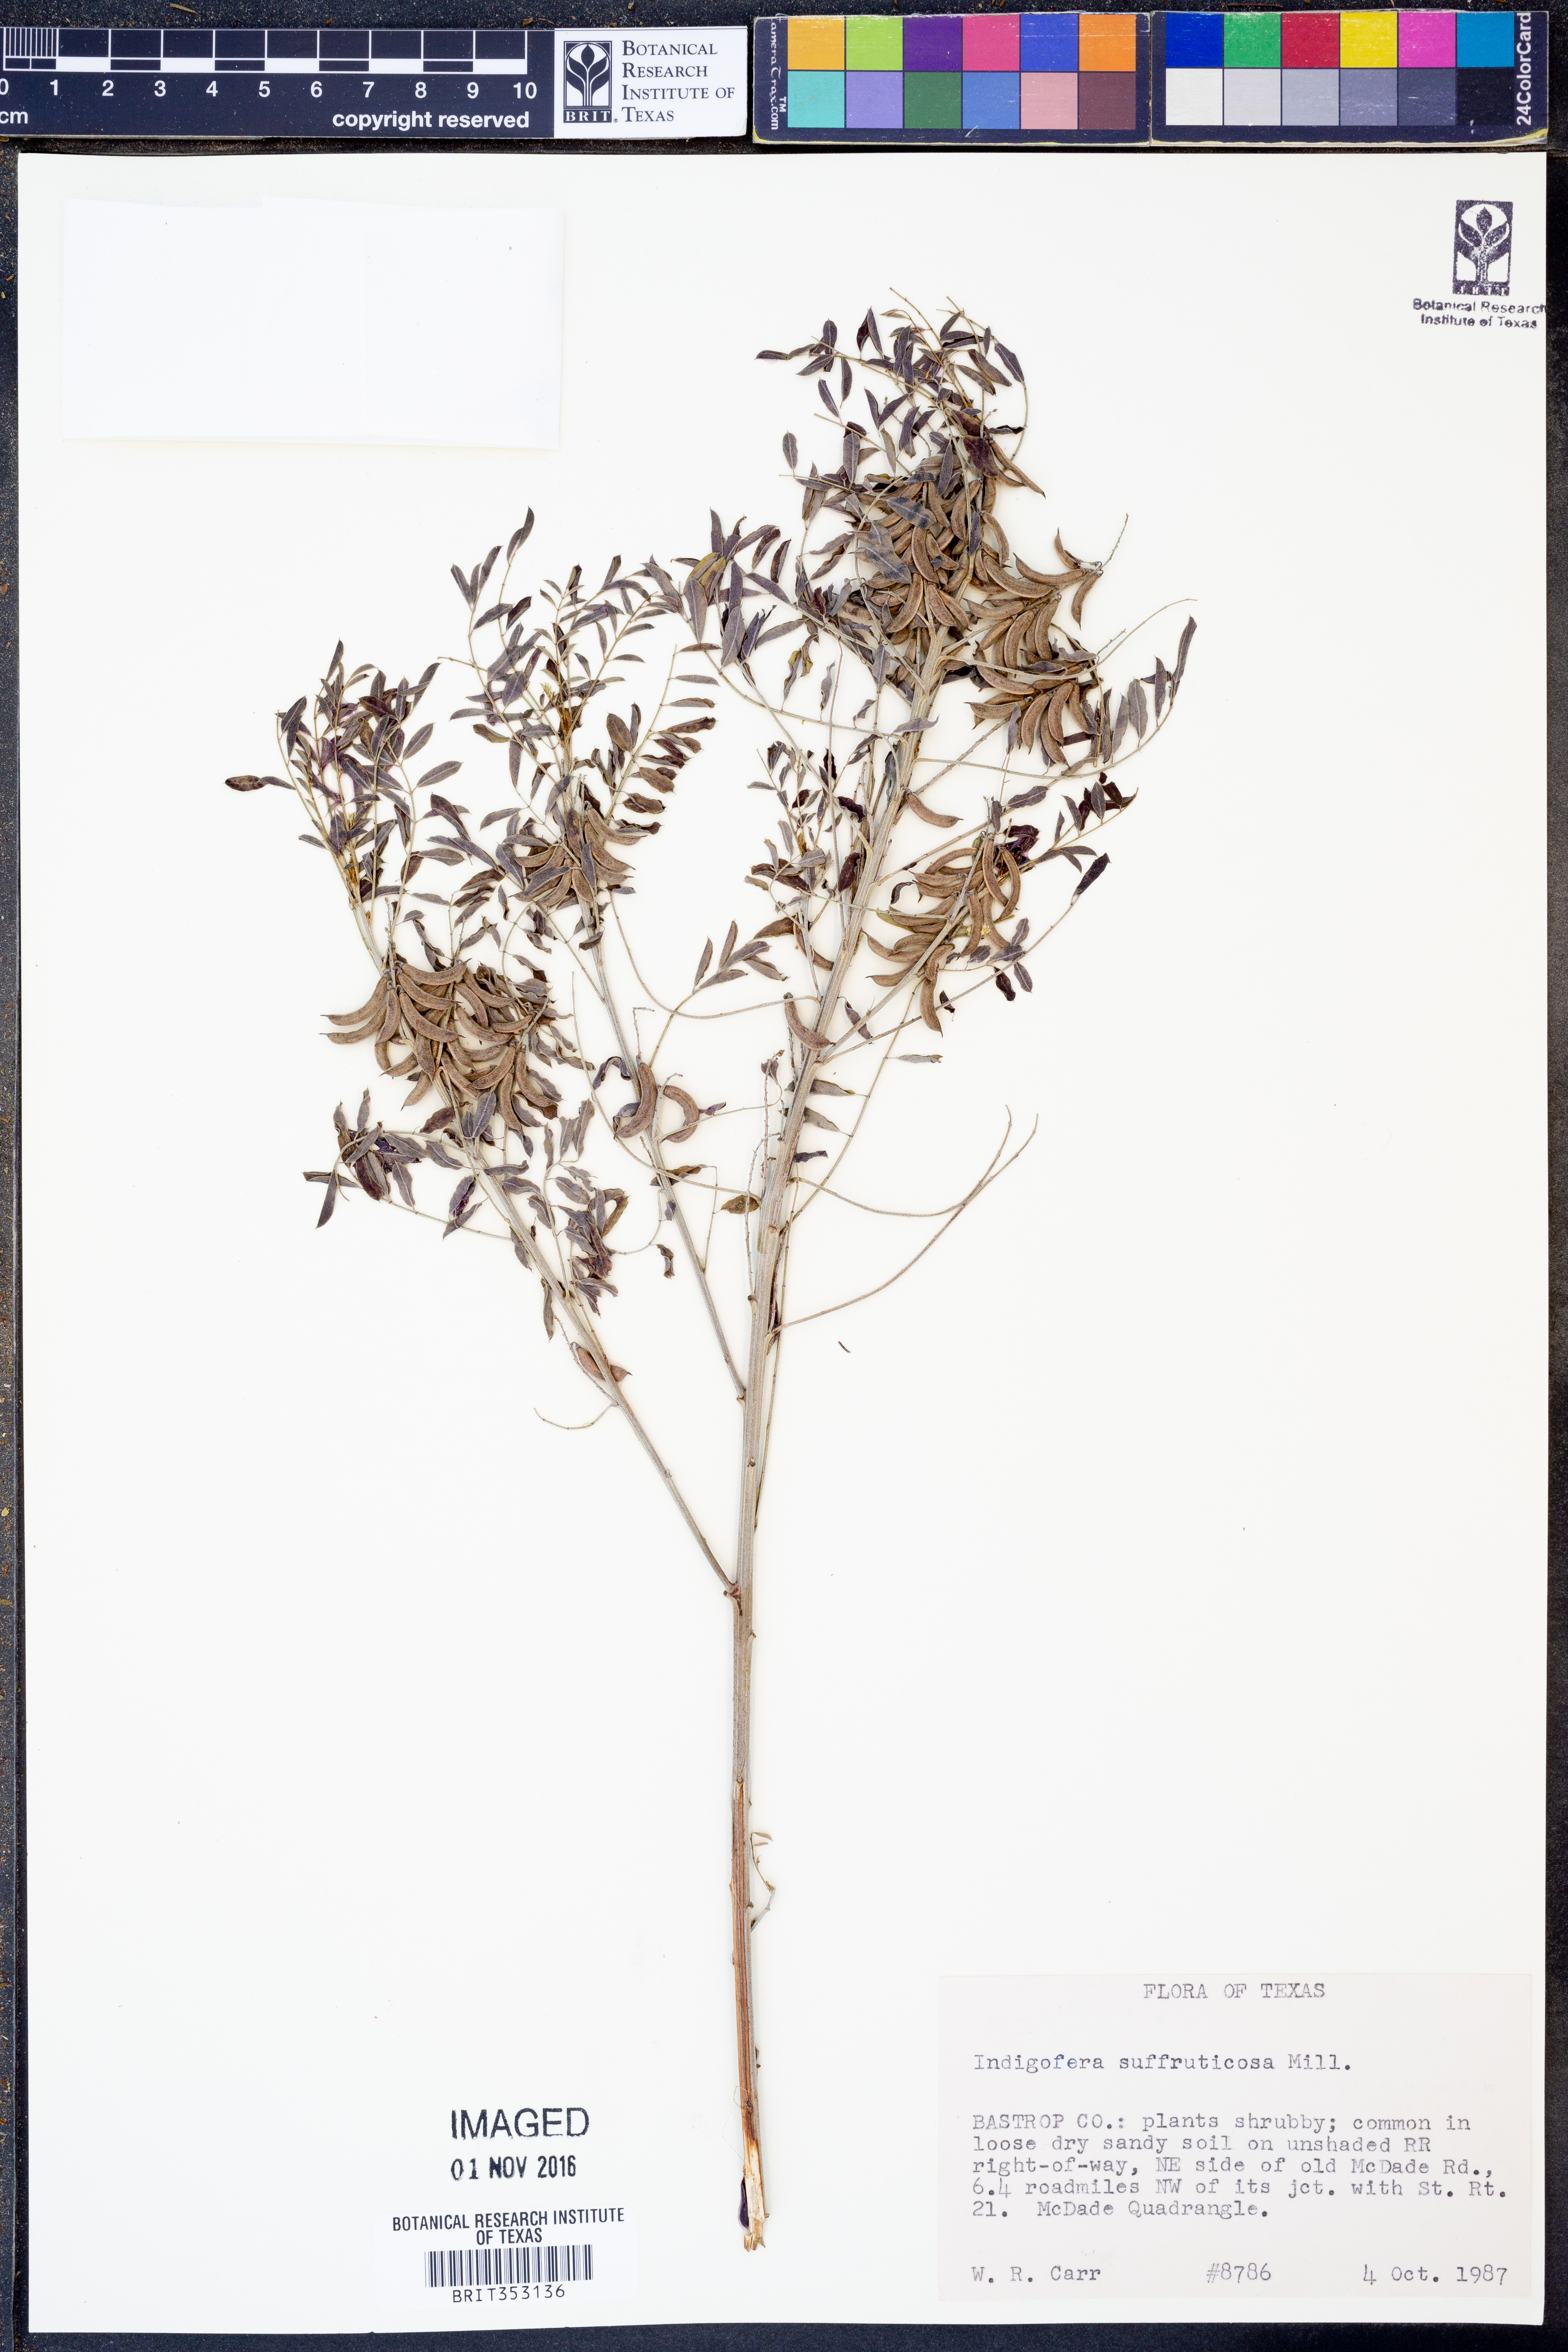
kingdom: Plantae
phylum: Tracheophyta
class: Magnoliopsida
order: Fabales
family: Fabaceae
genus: Indigofera
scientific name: Indigofera suffruticosa
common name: Anil de pasto
